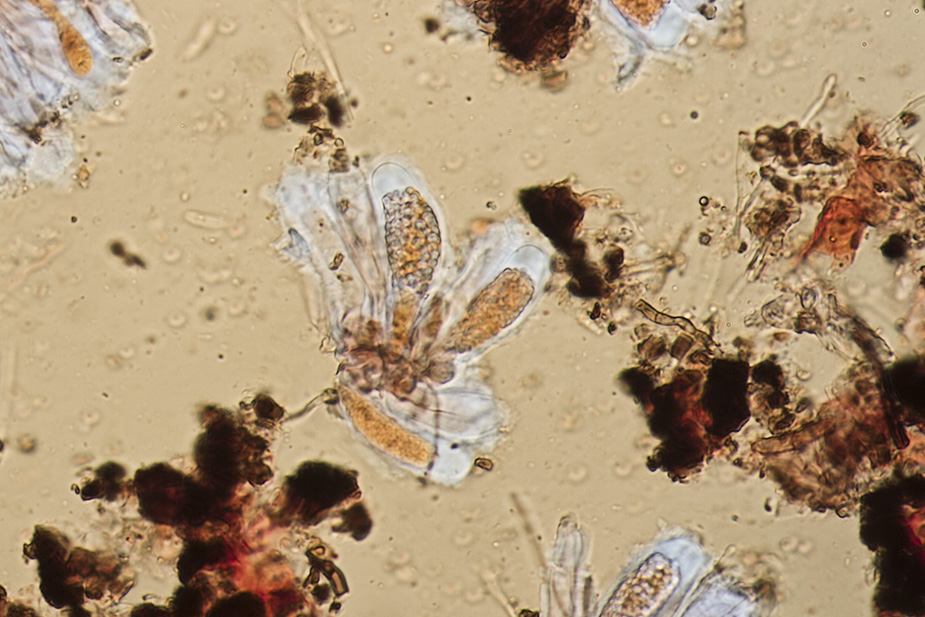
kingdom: Fungi
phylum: Ascomycota
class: Sareomycetes
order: Sareales
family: Sareaceae
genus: Sarea
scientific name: Sarea difformis
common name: mørk harpiksskive
